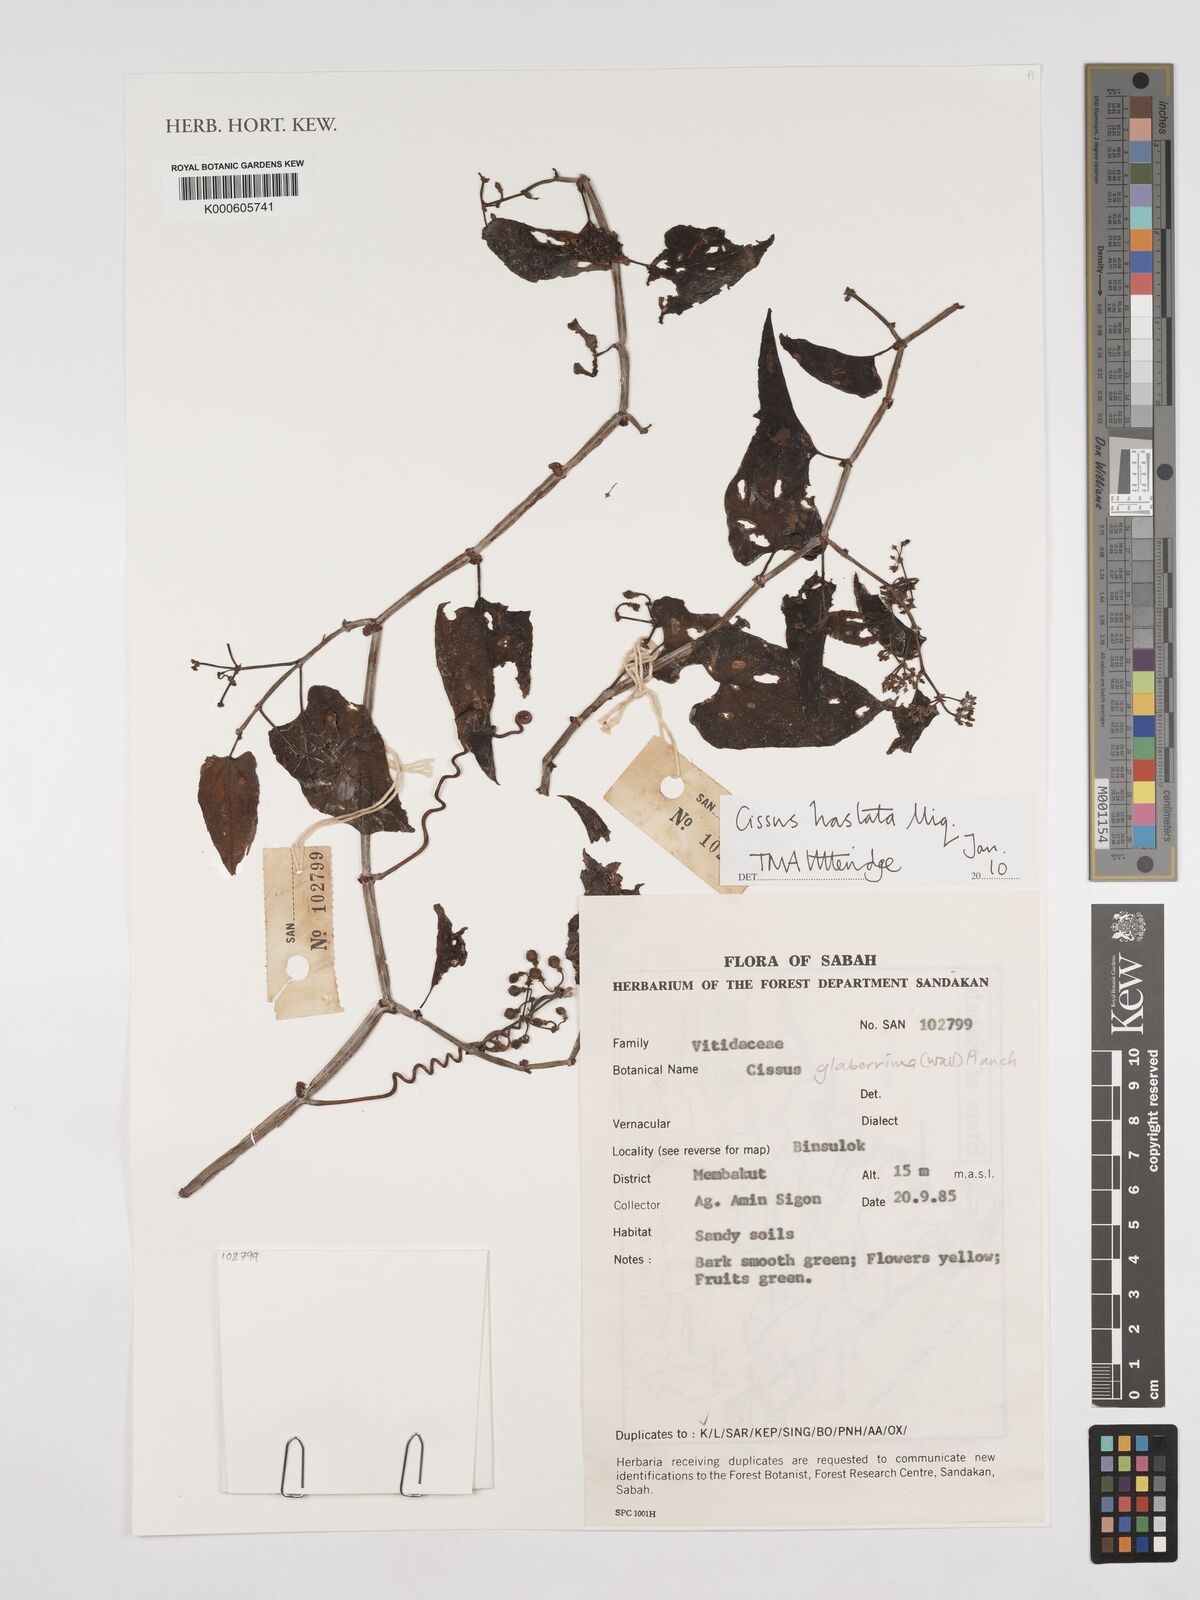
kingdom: Plantae
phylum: Tracheophyta
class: Magnoliopsida
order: Vitales
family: Vitaceae
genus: Cissus
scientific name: Cissus hastata
